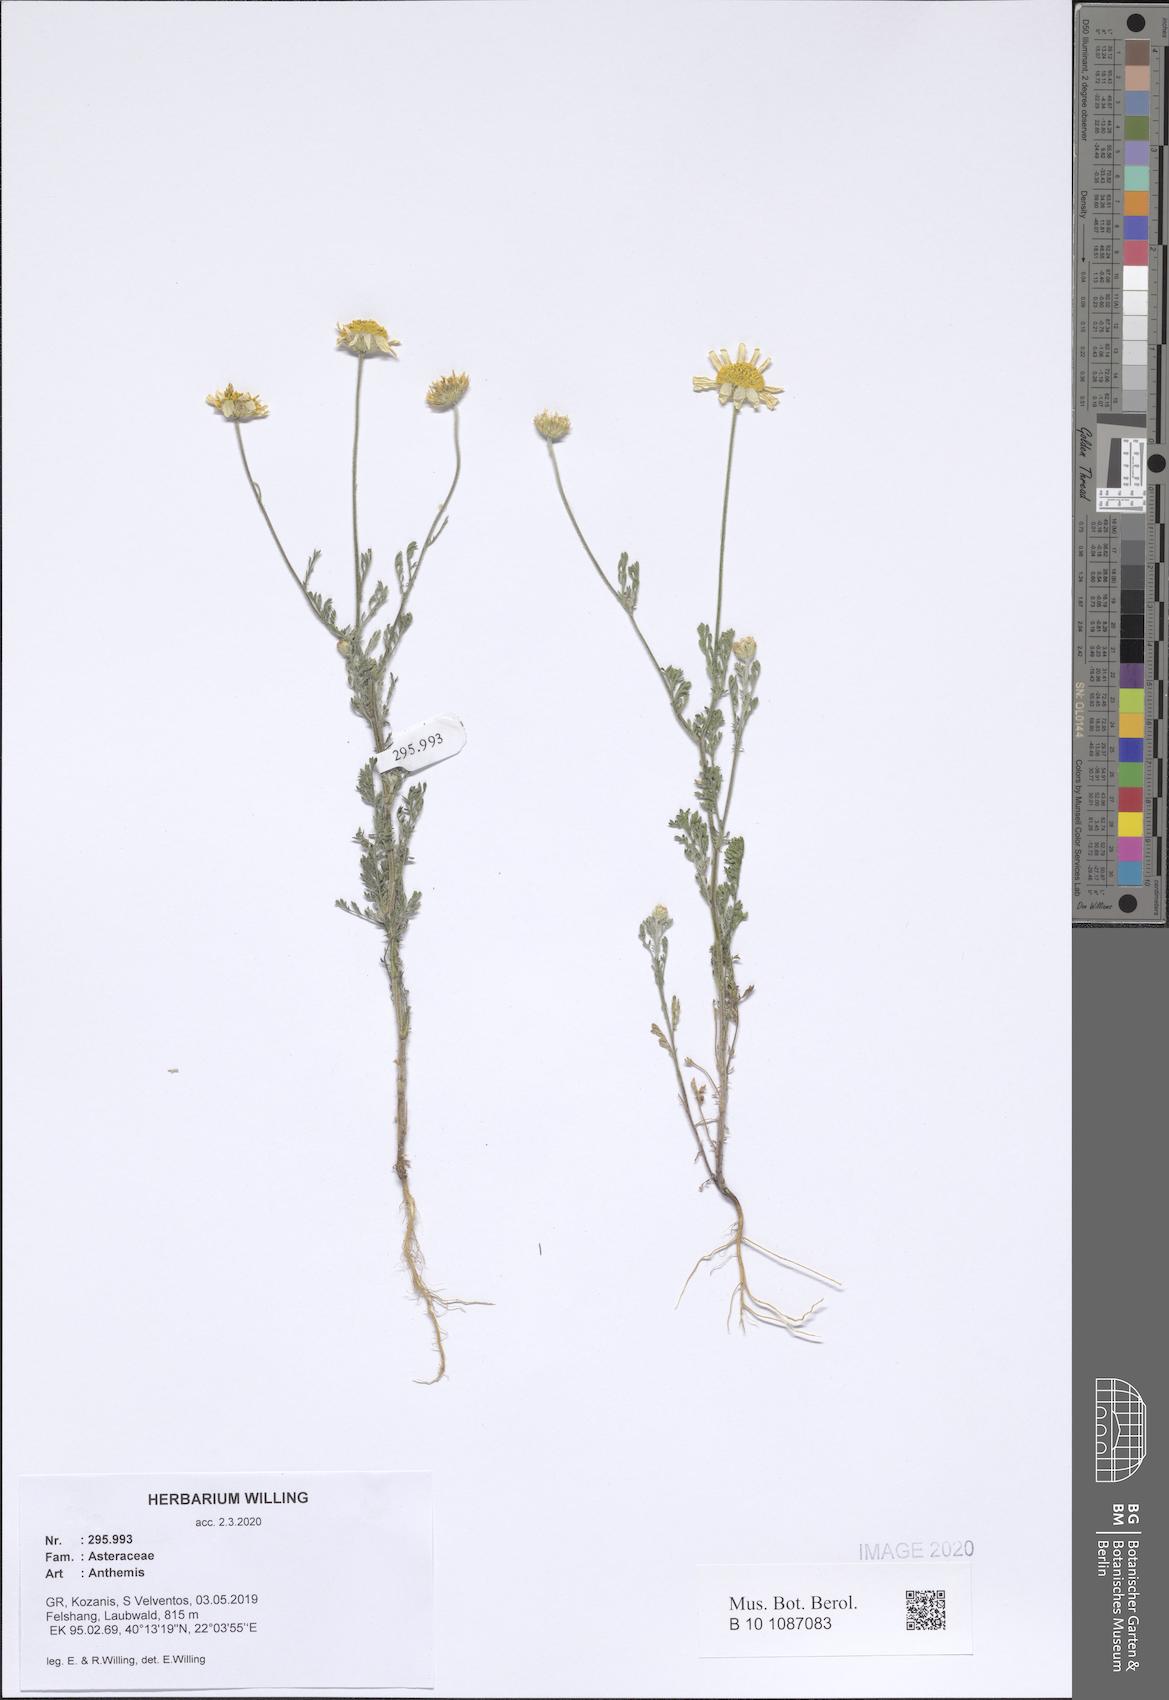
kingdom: Plantae
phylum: Tracheophyta
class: Magnoliopsida
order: Asterales
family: Asteraceae
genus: Anthemis
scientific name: Anthemis
